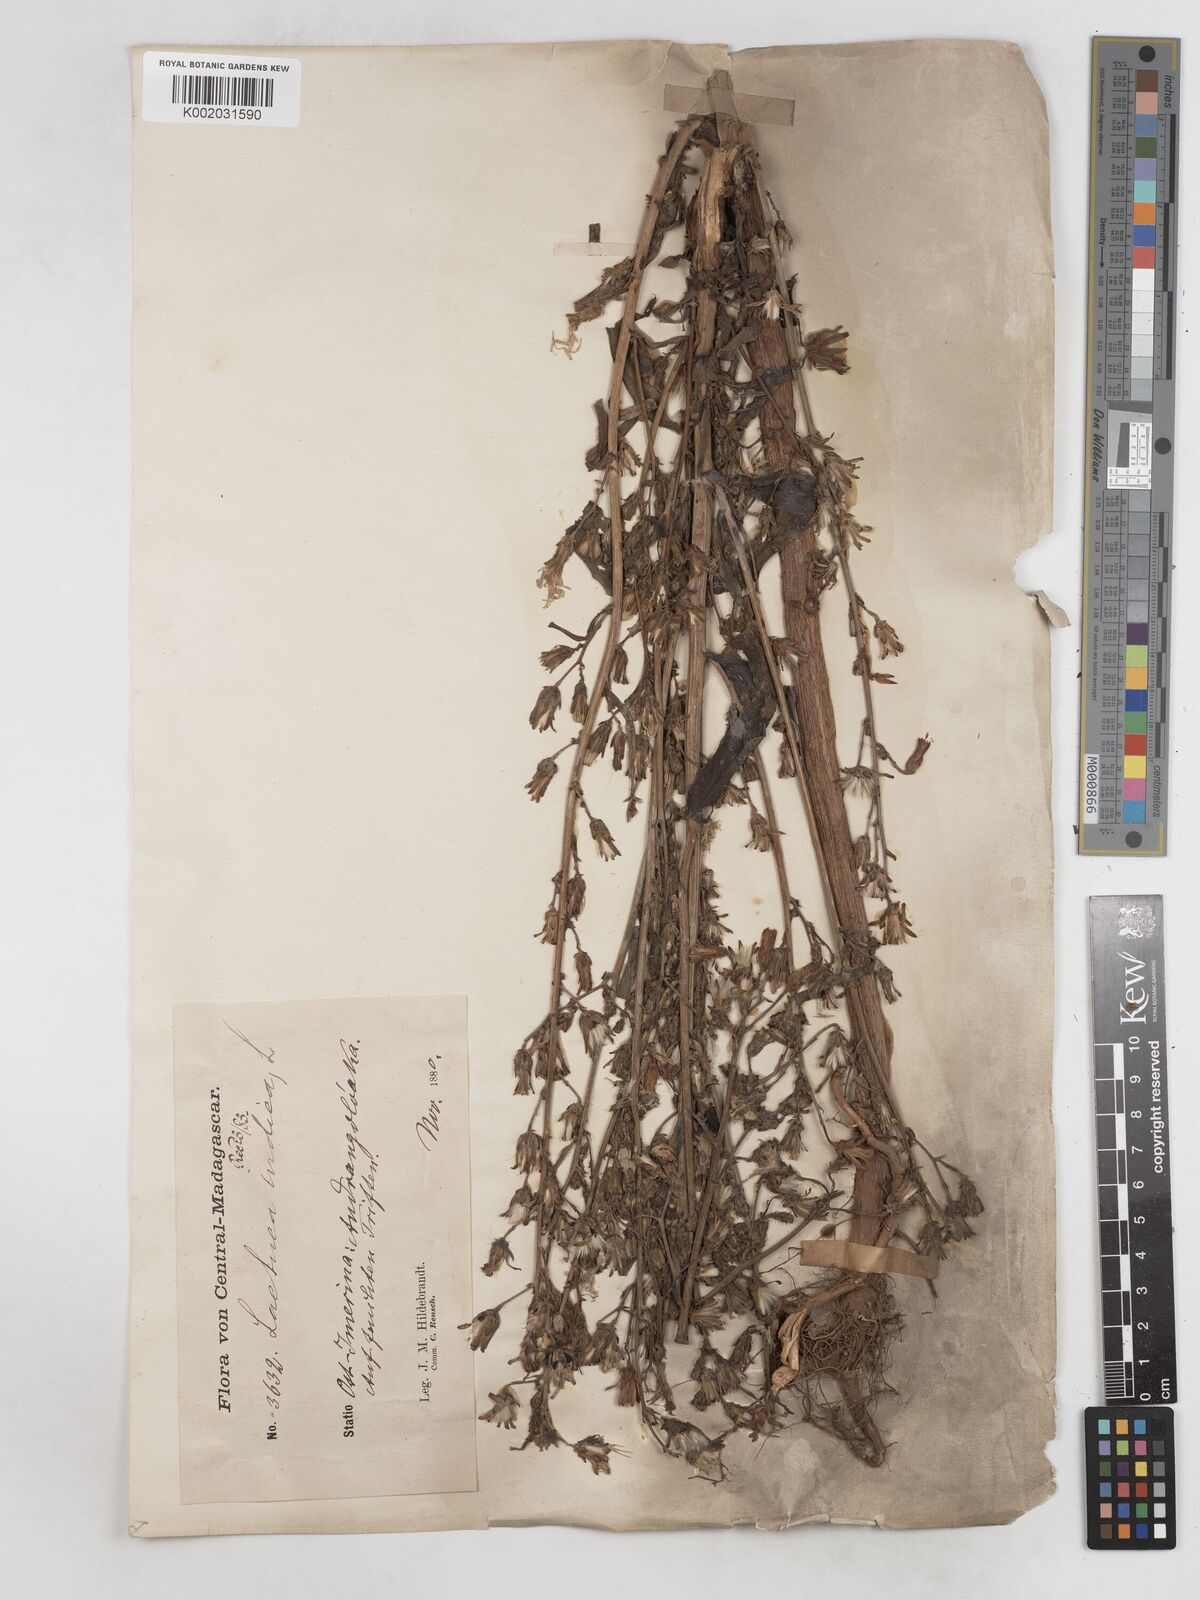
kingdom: Plantae
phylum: Tracheophyta
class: Magnoliopsida
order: Asterales
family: Asteraceae
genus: Lactuca
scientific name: Lactuca
